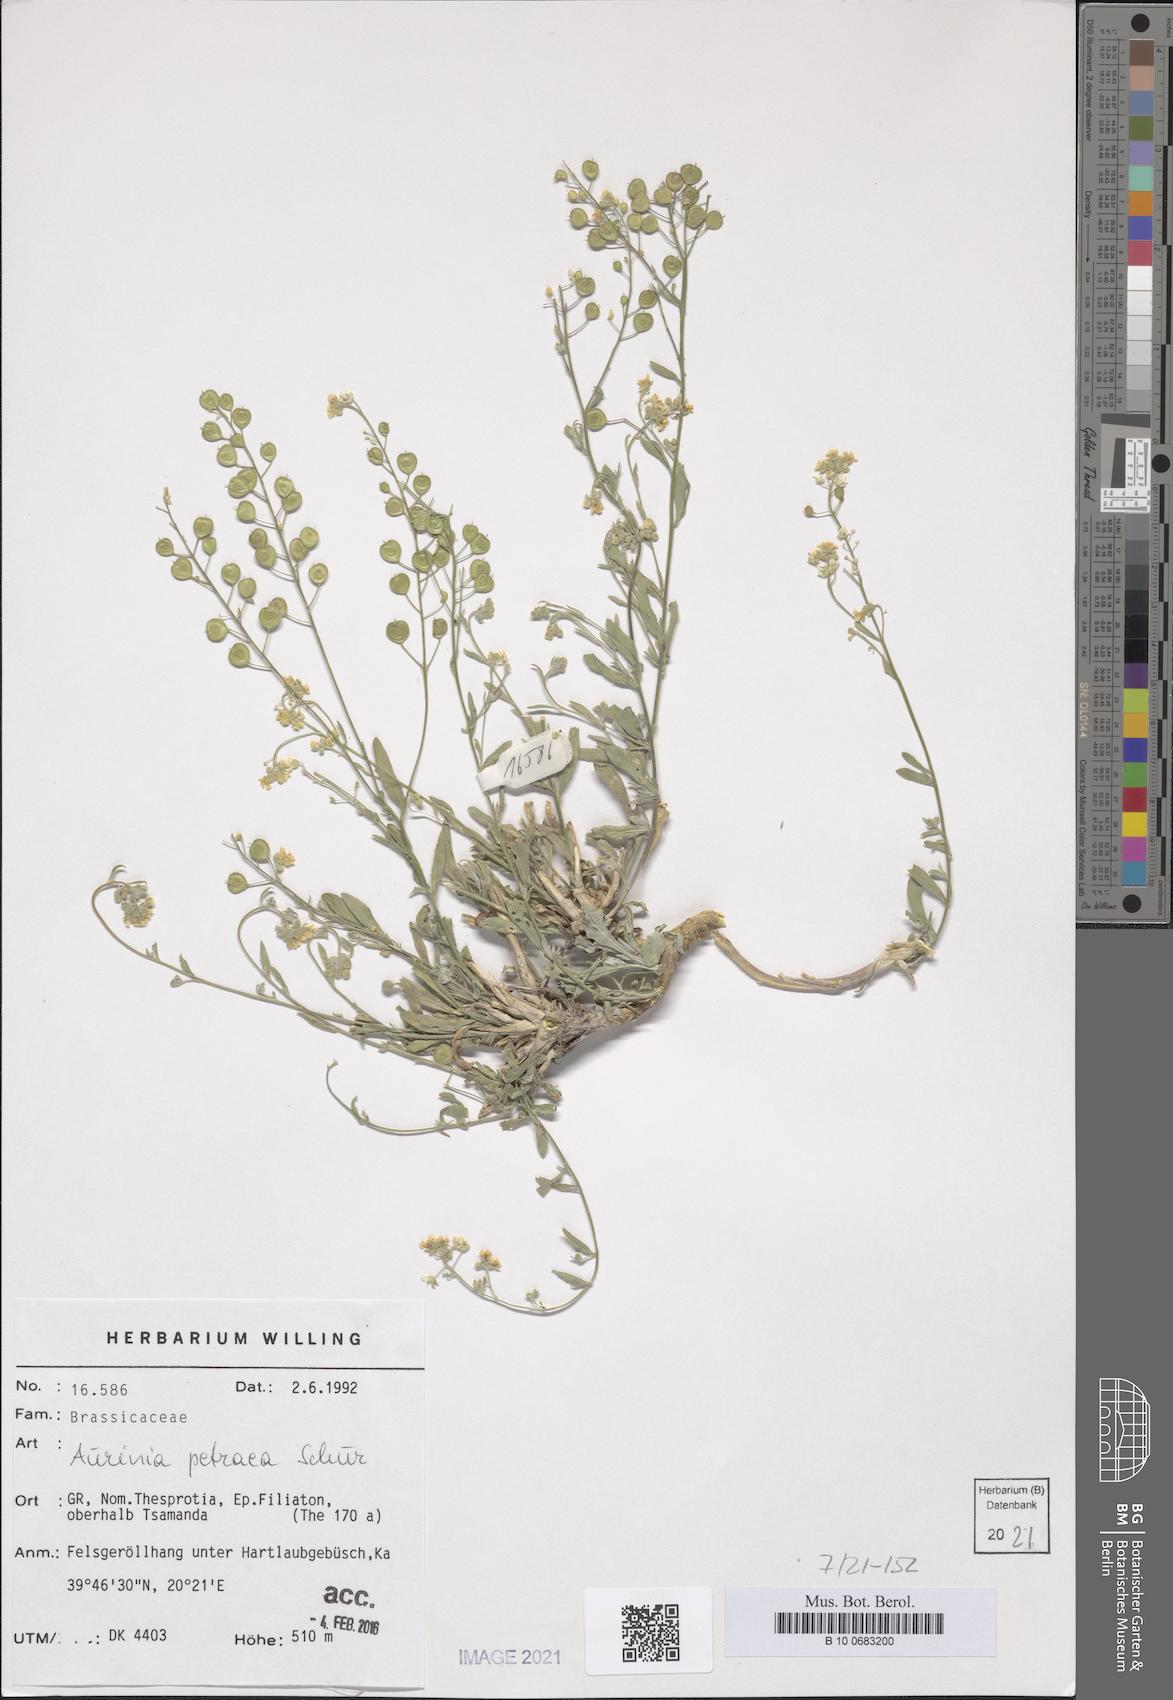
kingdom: Plantae
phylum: Tracheophyta
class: Magnoliopsida
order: Brassicales
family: Brassicaceae
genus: Aurinia
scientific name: Aurinia petraea
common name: Goldentuft
